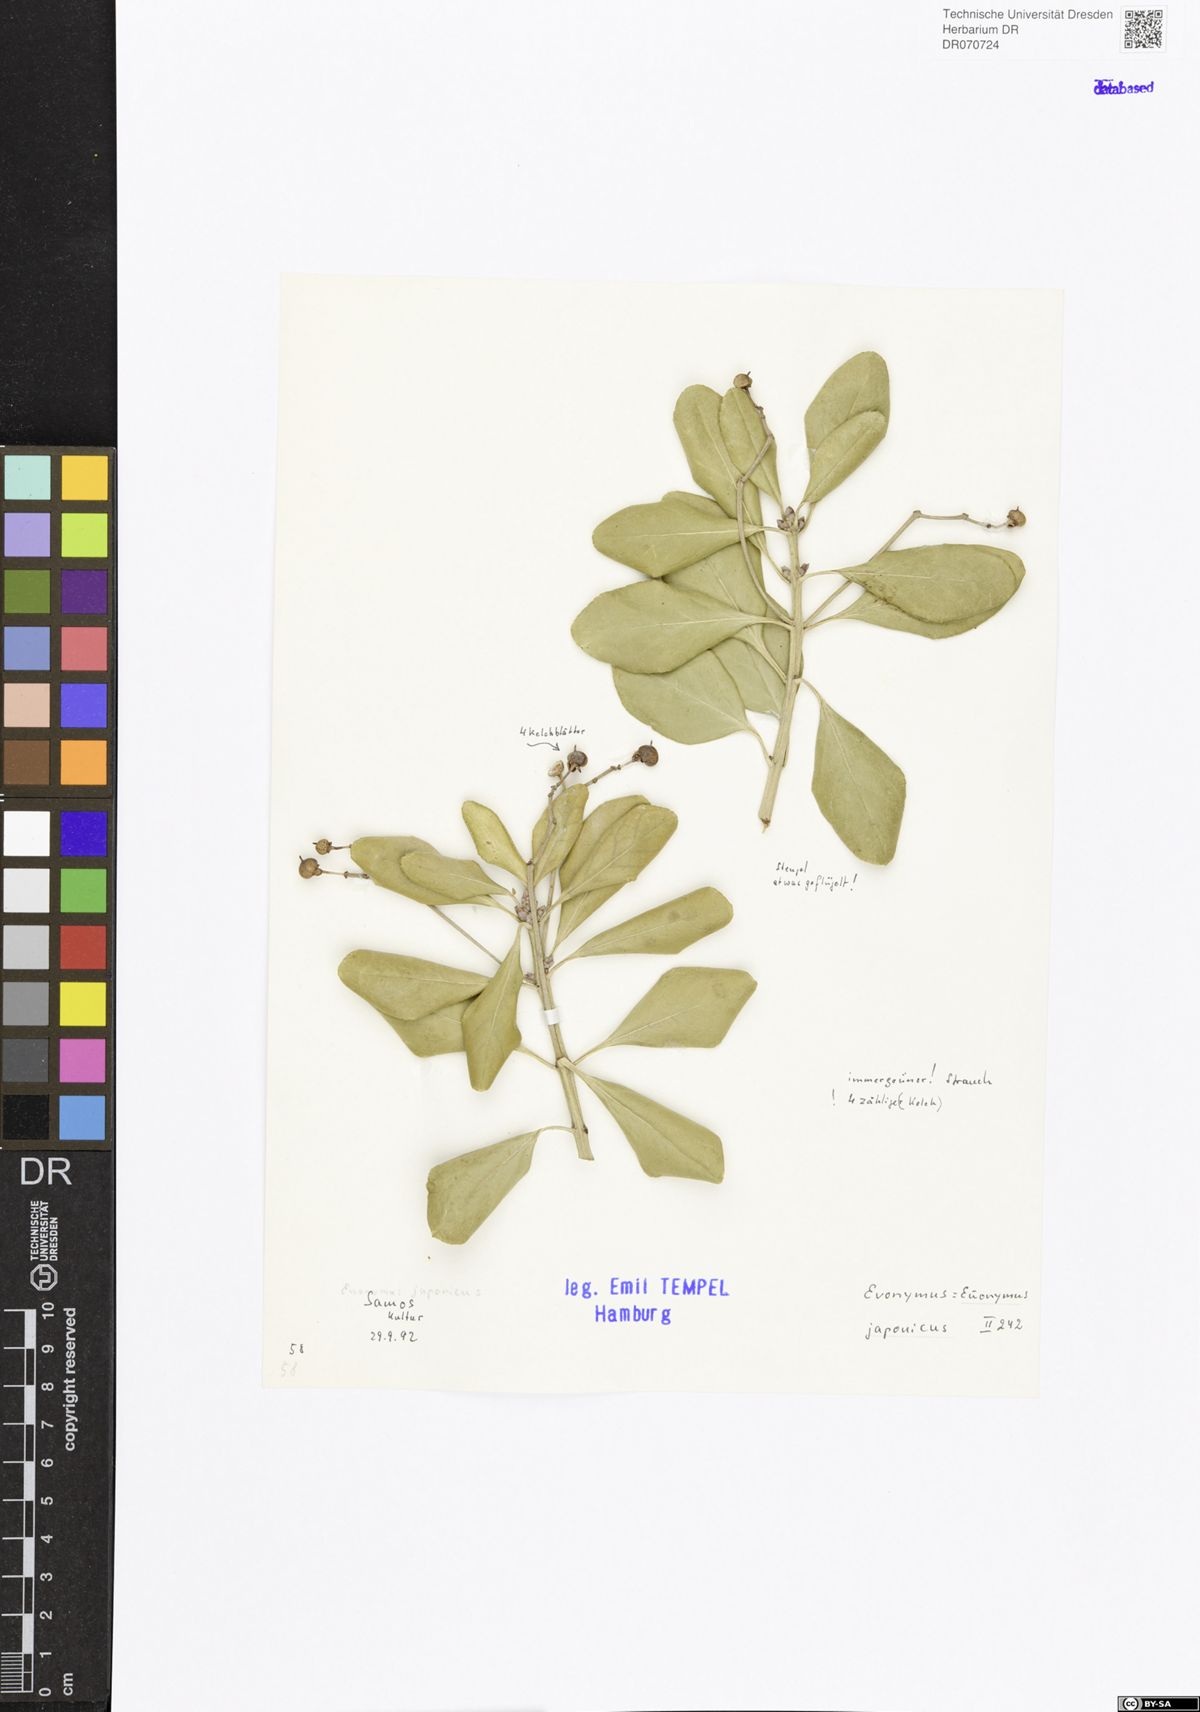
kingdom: Plantae
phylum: Tracheophyta
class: Magnoliopsida
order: Celastrales
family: Celastraceae
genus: Euonymus
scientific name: Euonymus fortunei
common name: Climbing euonymus
